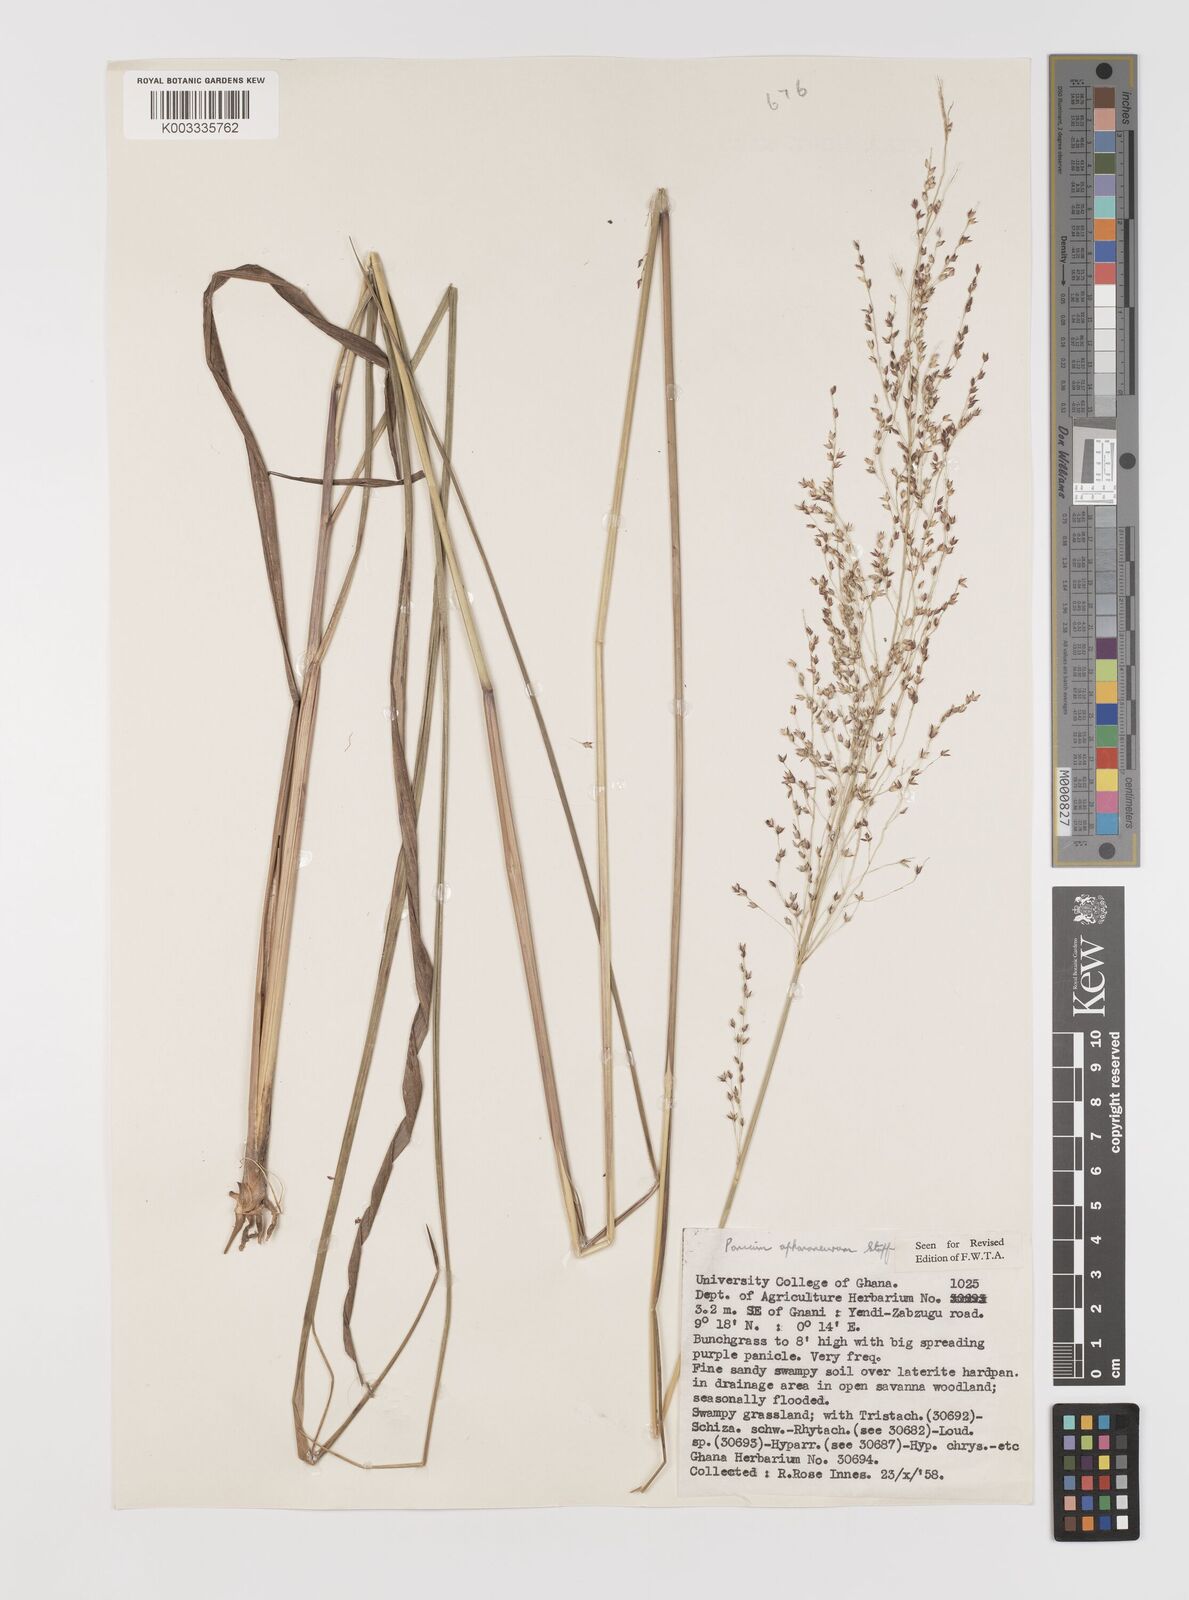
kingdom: Plantae
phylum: Tracheophyta
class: Liliopsida
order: Poales
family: Poaceae
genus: Panicum
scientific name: Panicum fluviicola
